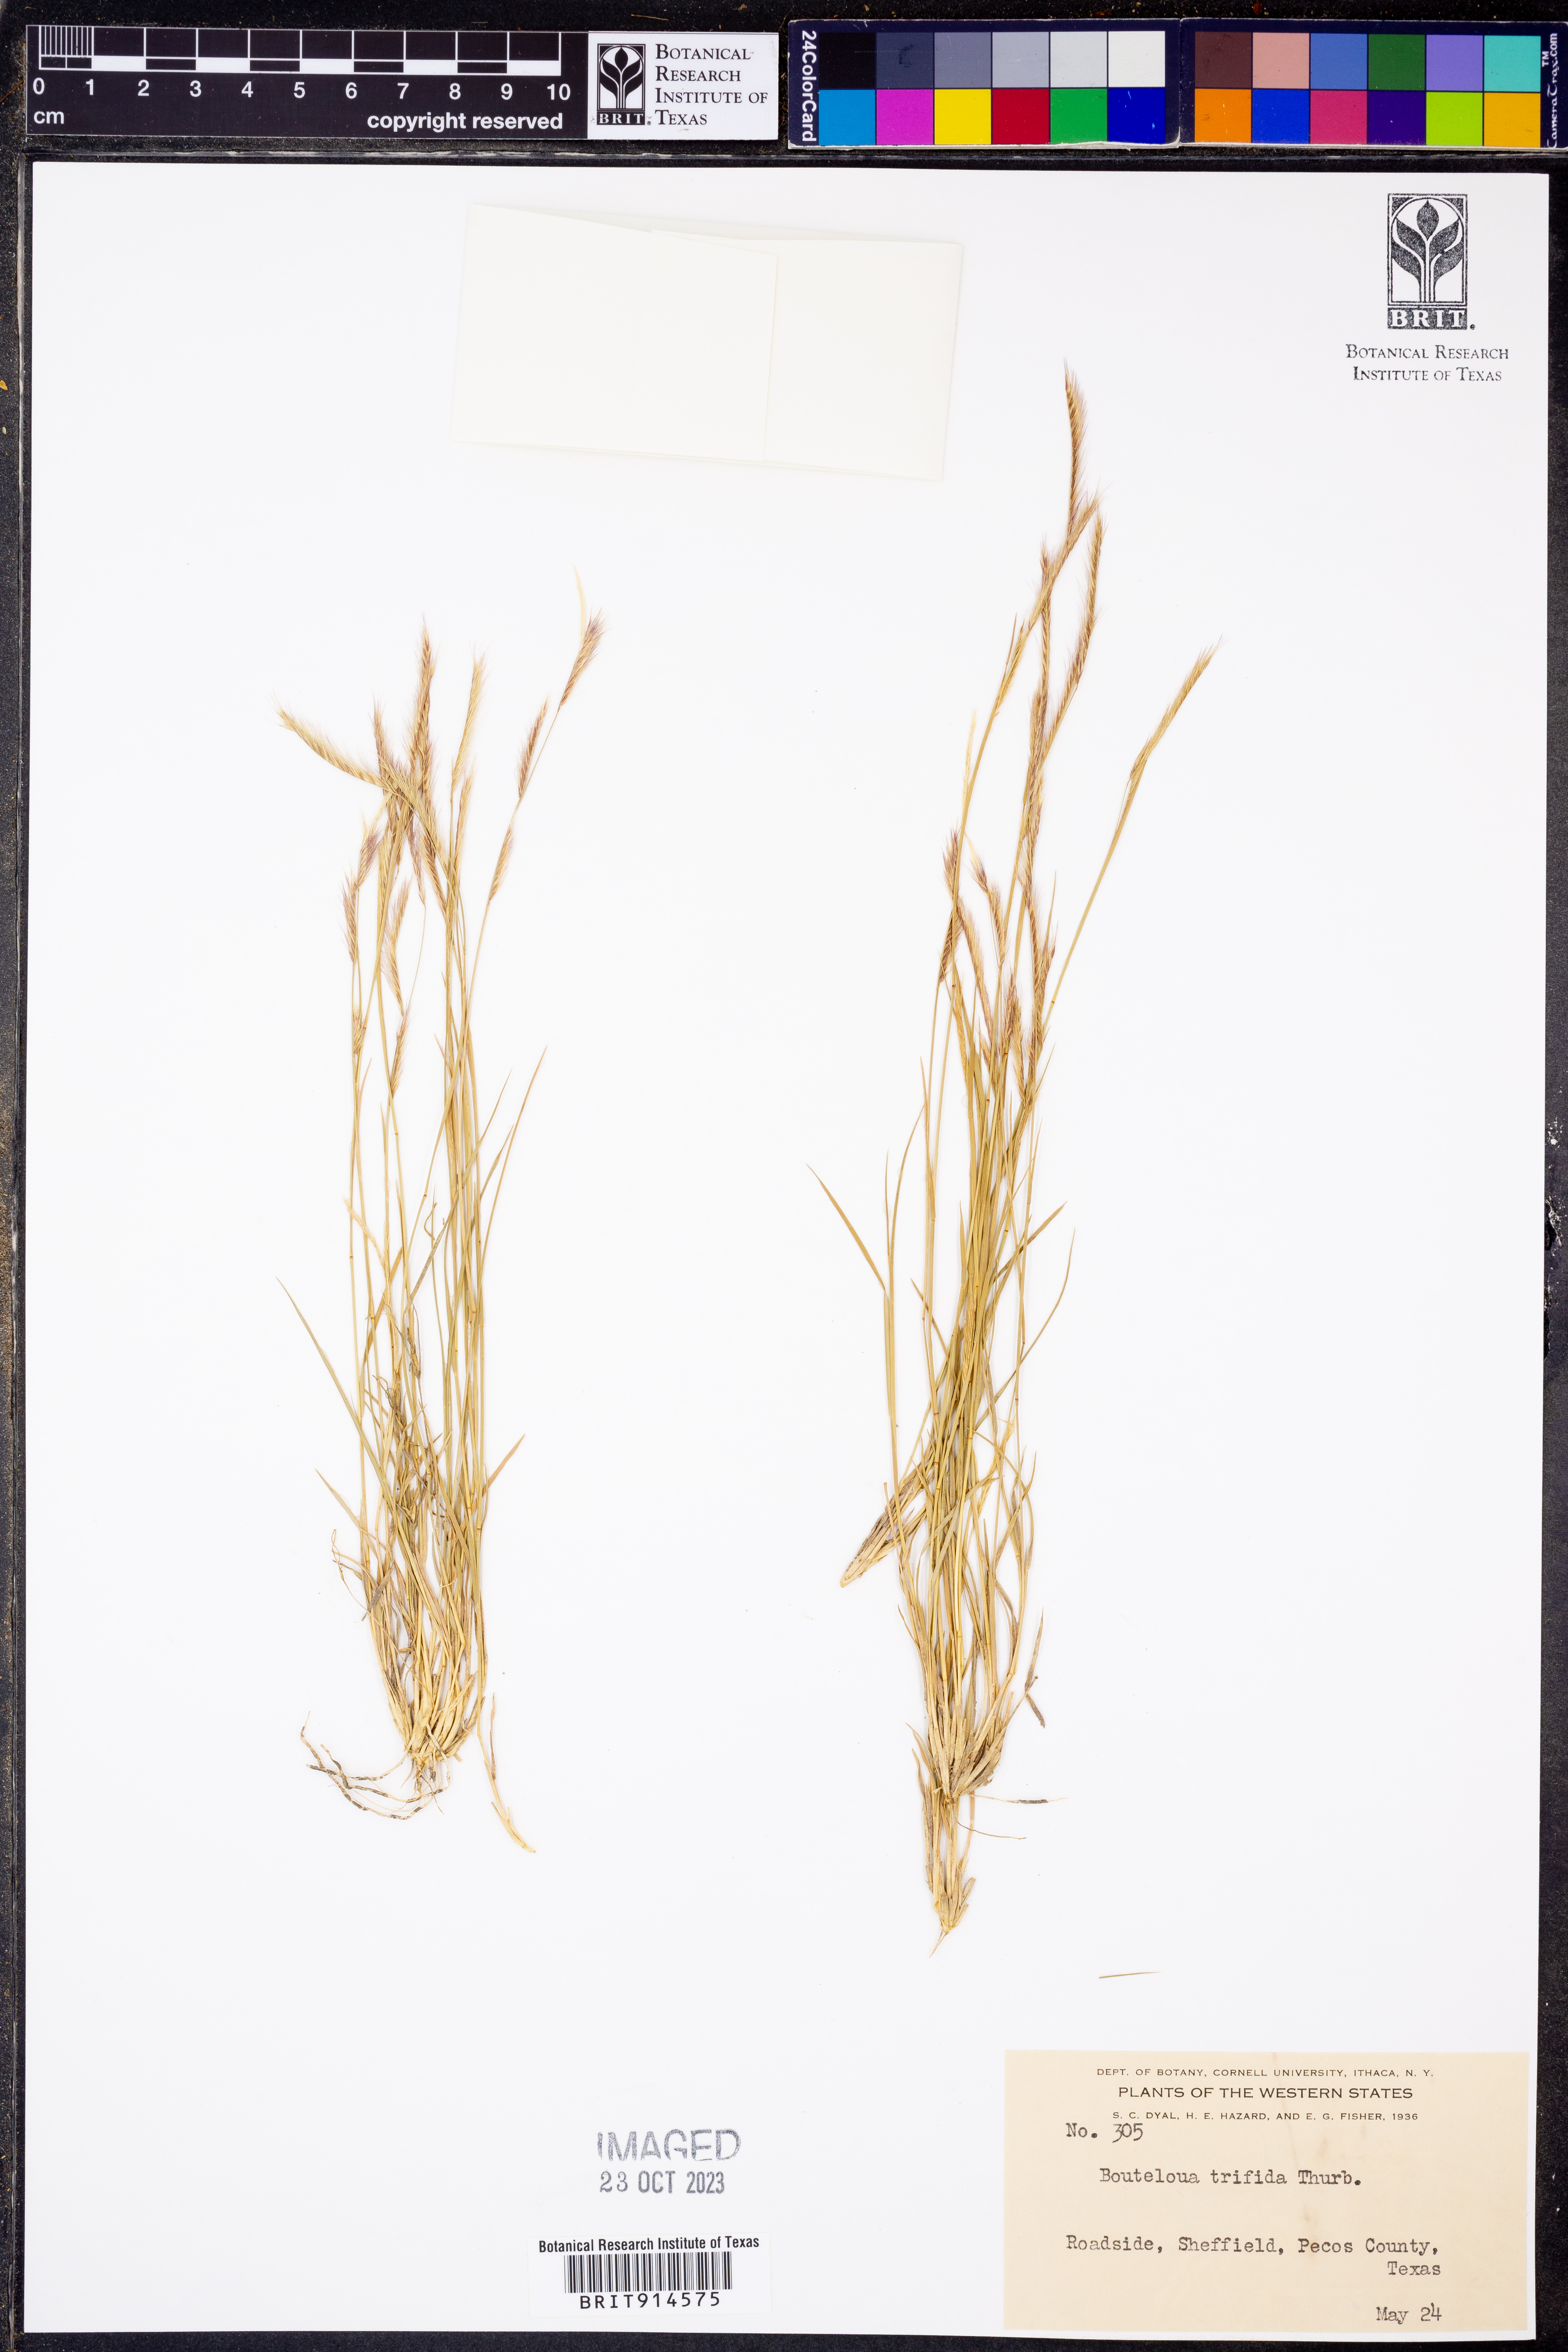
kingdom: Plantae
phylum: Tracheophyta
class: Liliopsida
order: Poales
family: Poaceae
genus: Bouteloua
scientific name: Bouteloua trifida
